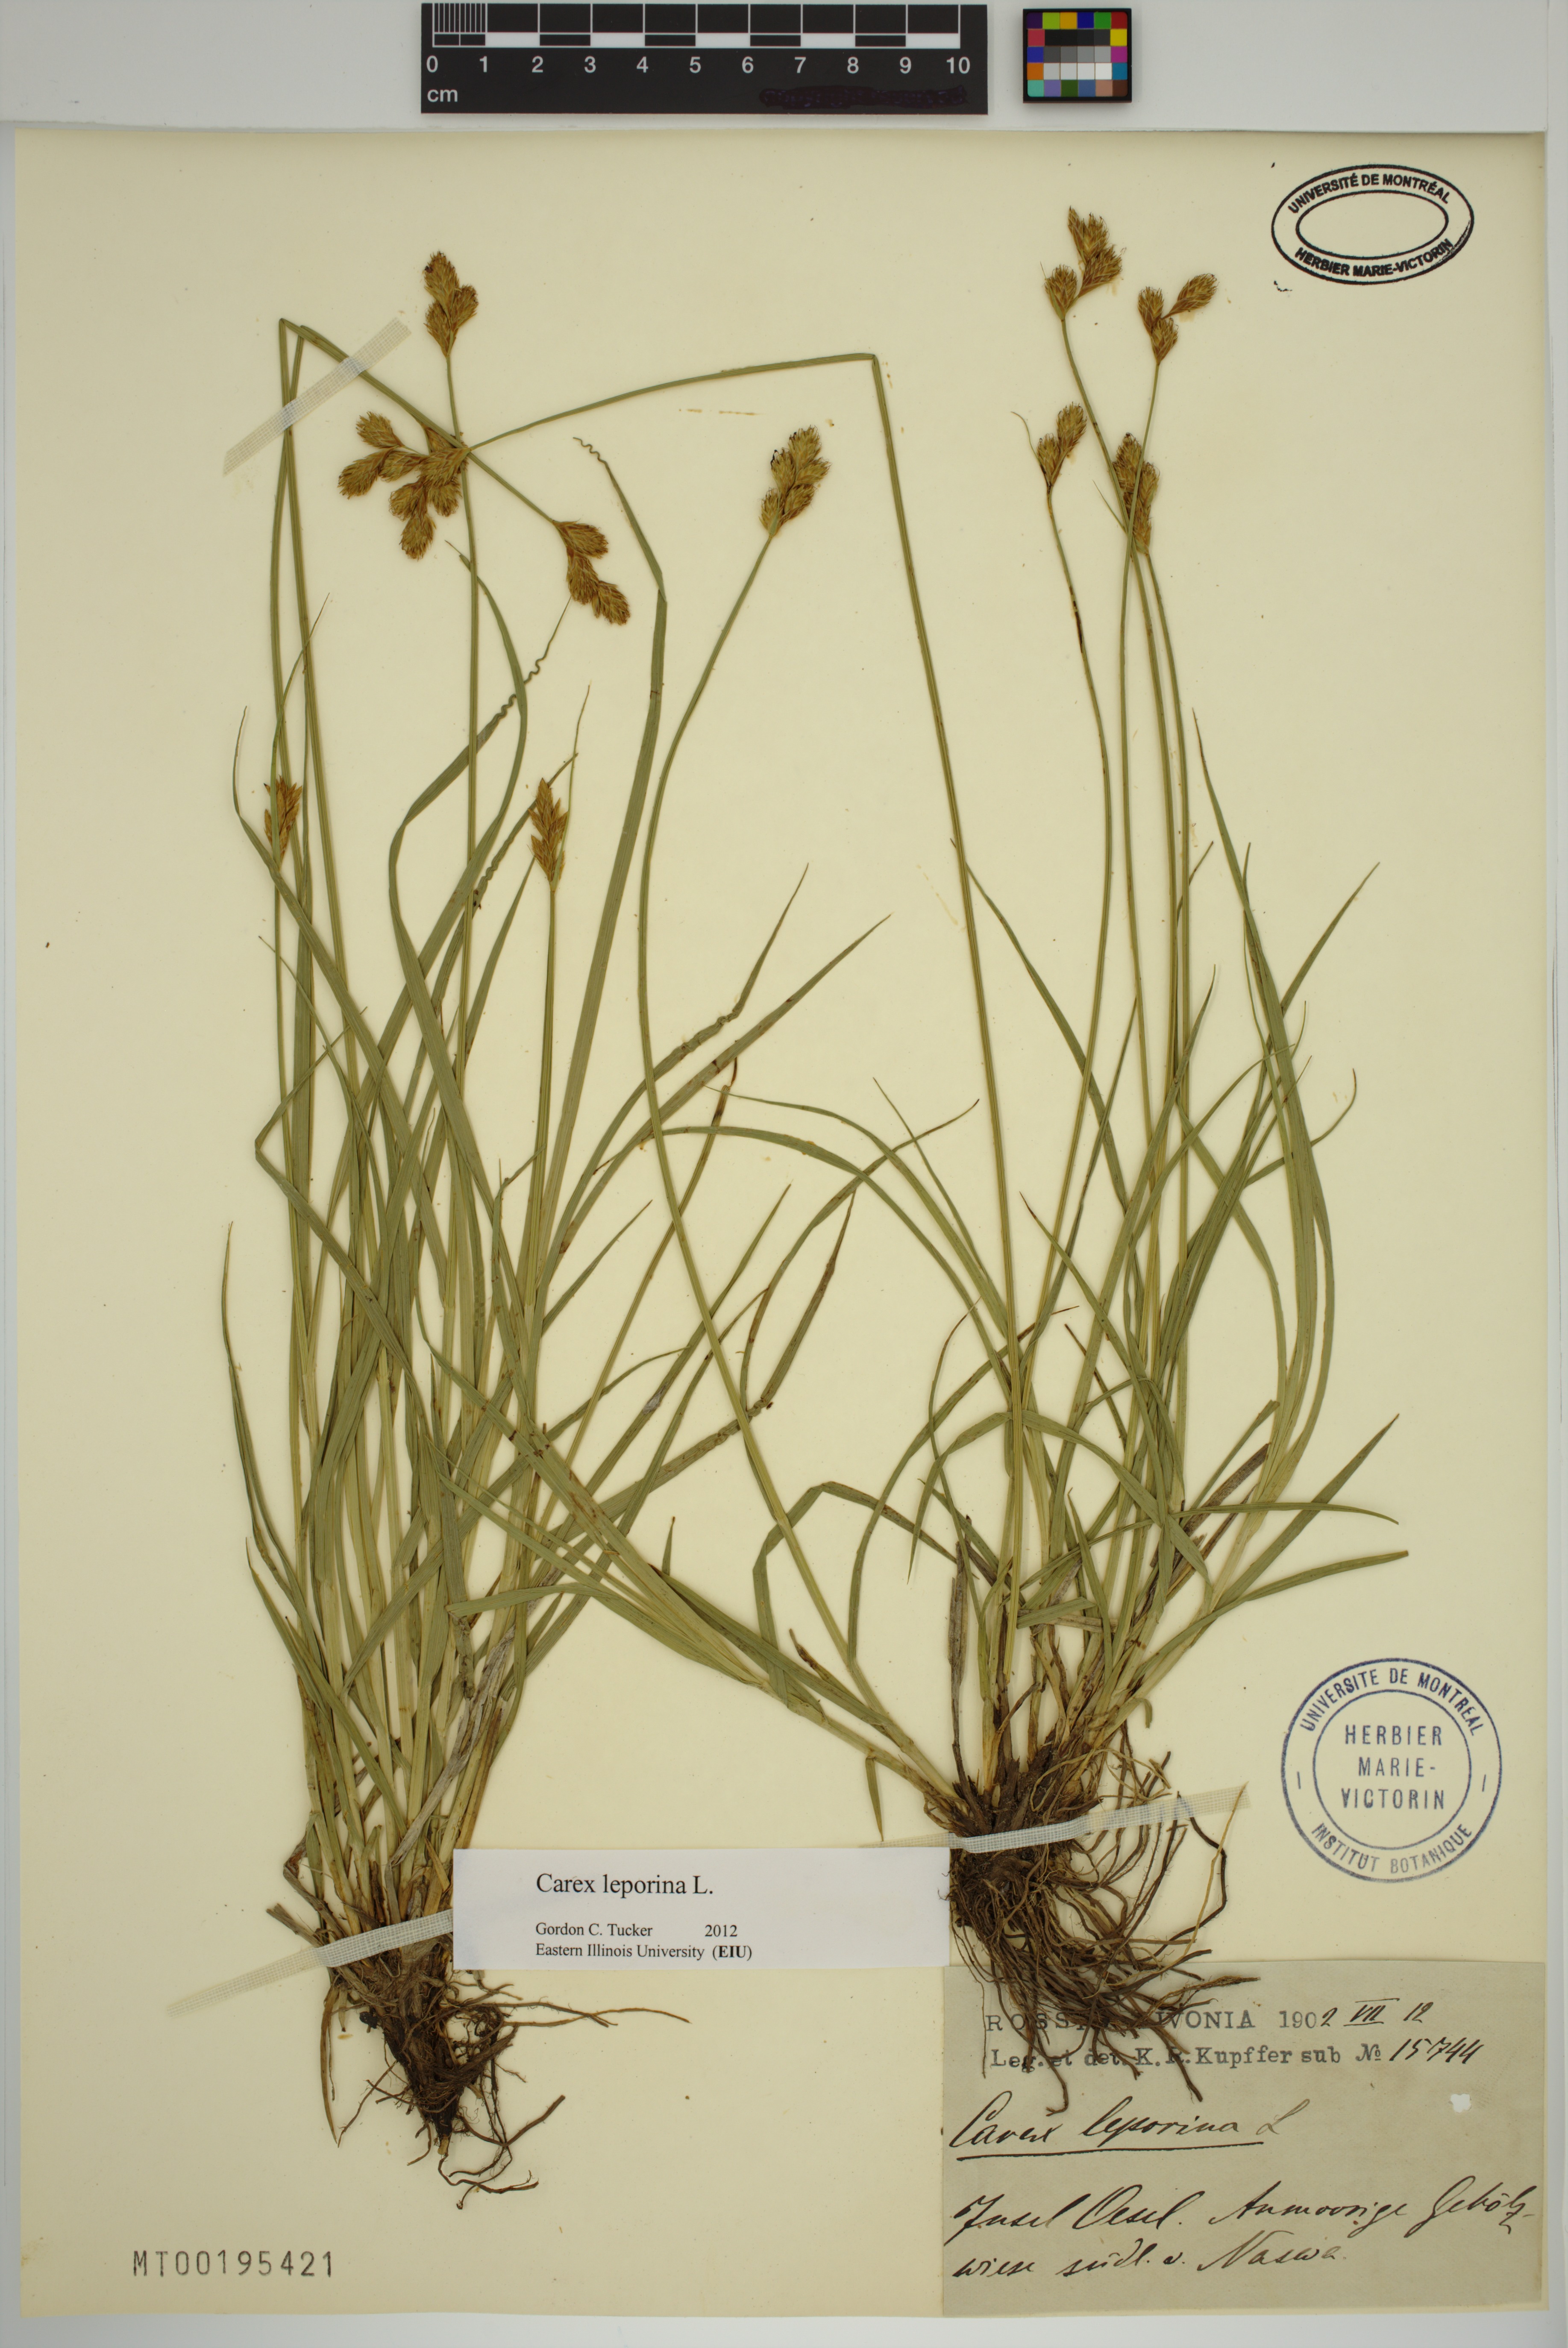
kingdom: Plantae
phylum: Tracheophyta
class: Liliopsida
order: Poales
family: Cyperaceae
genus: Carex
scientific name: Carex leporina
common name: Oval sedge
